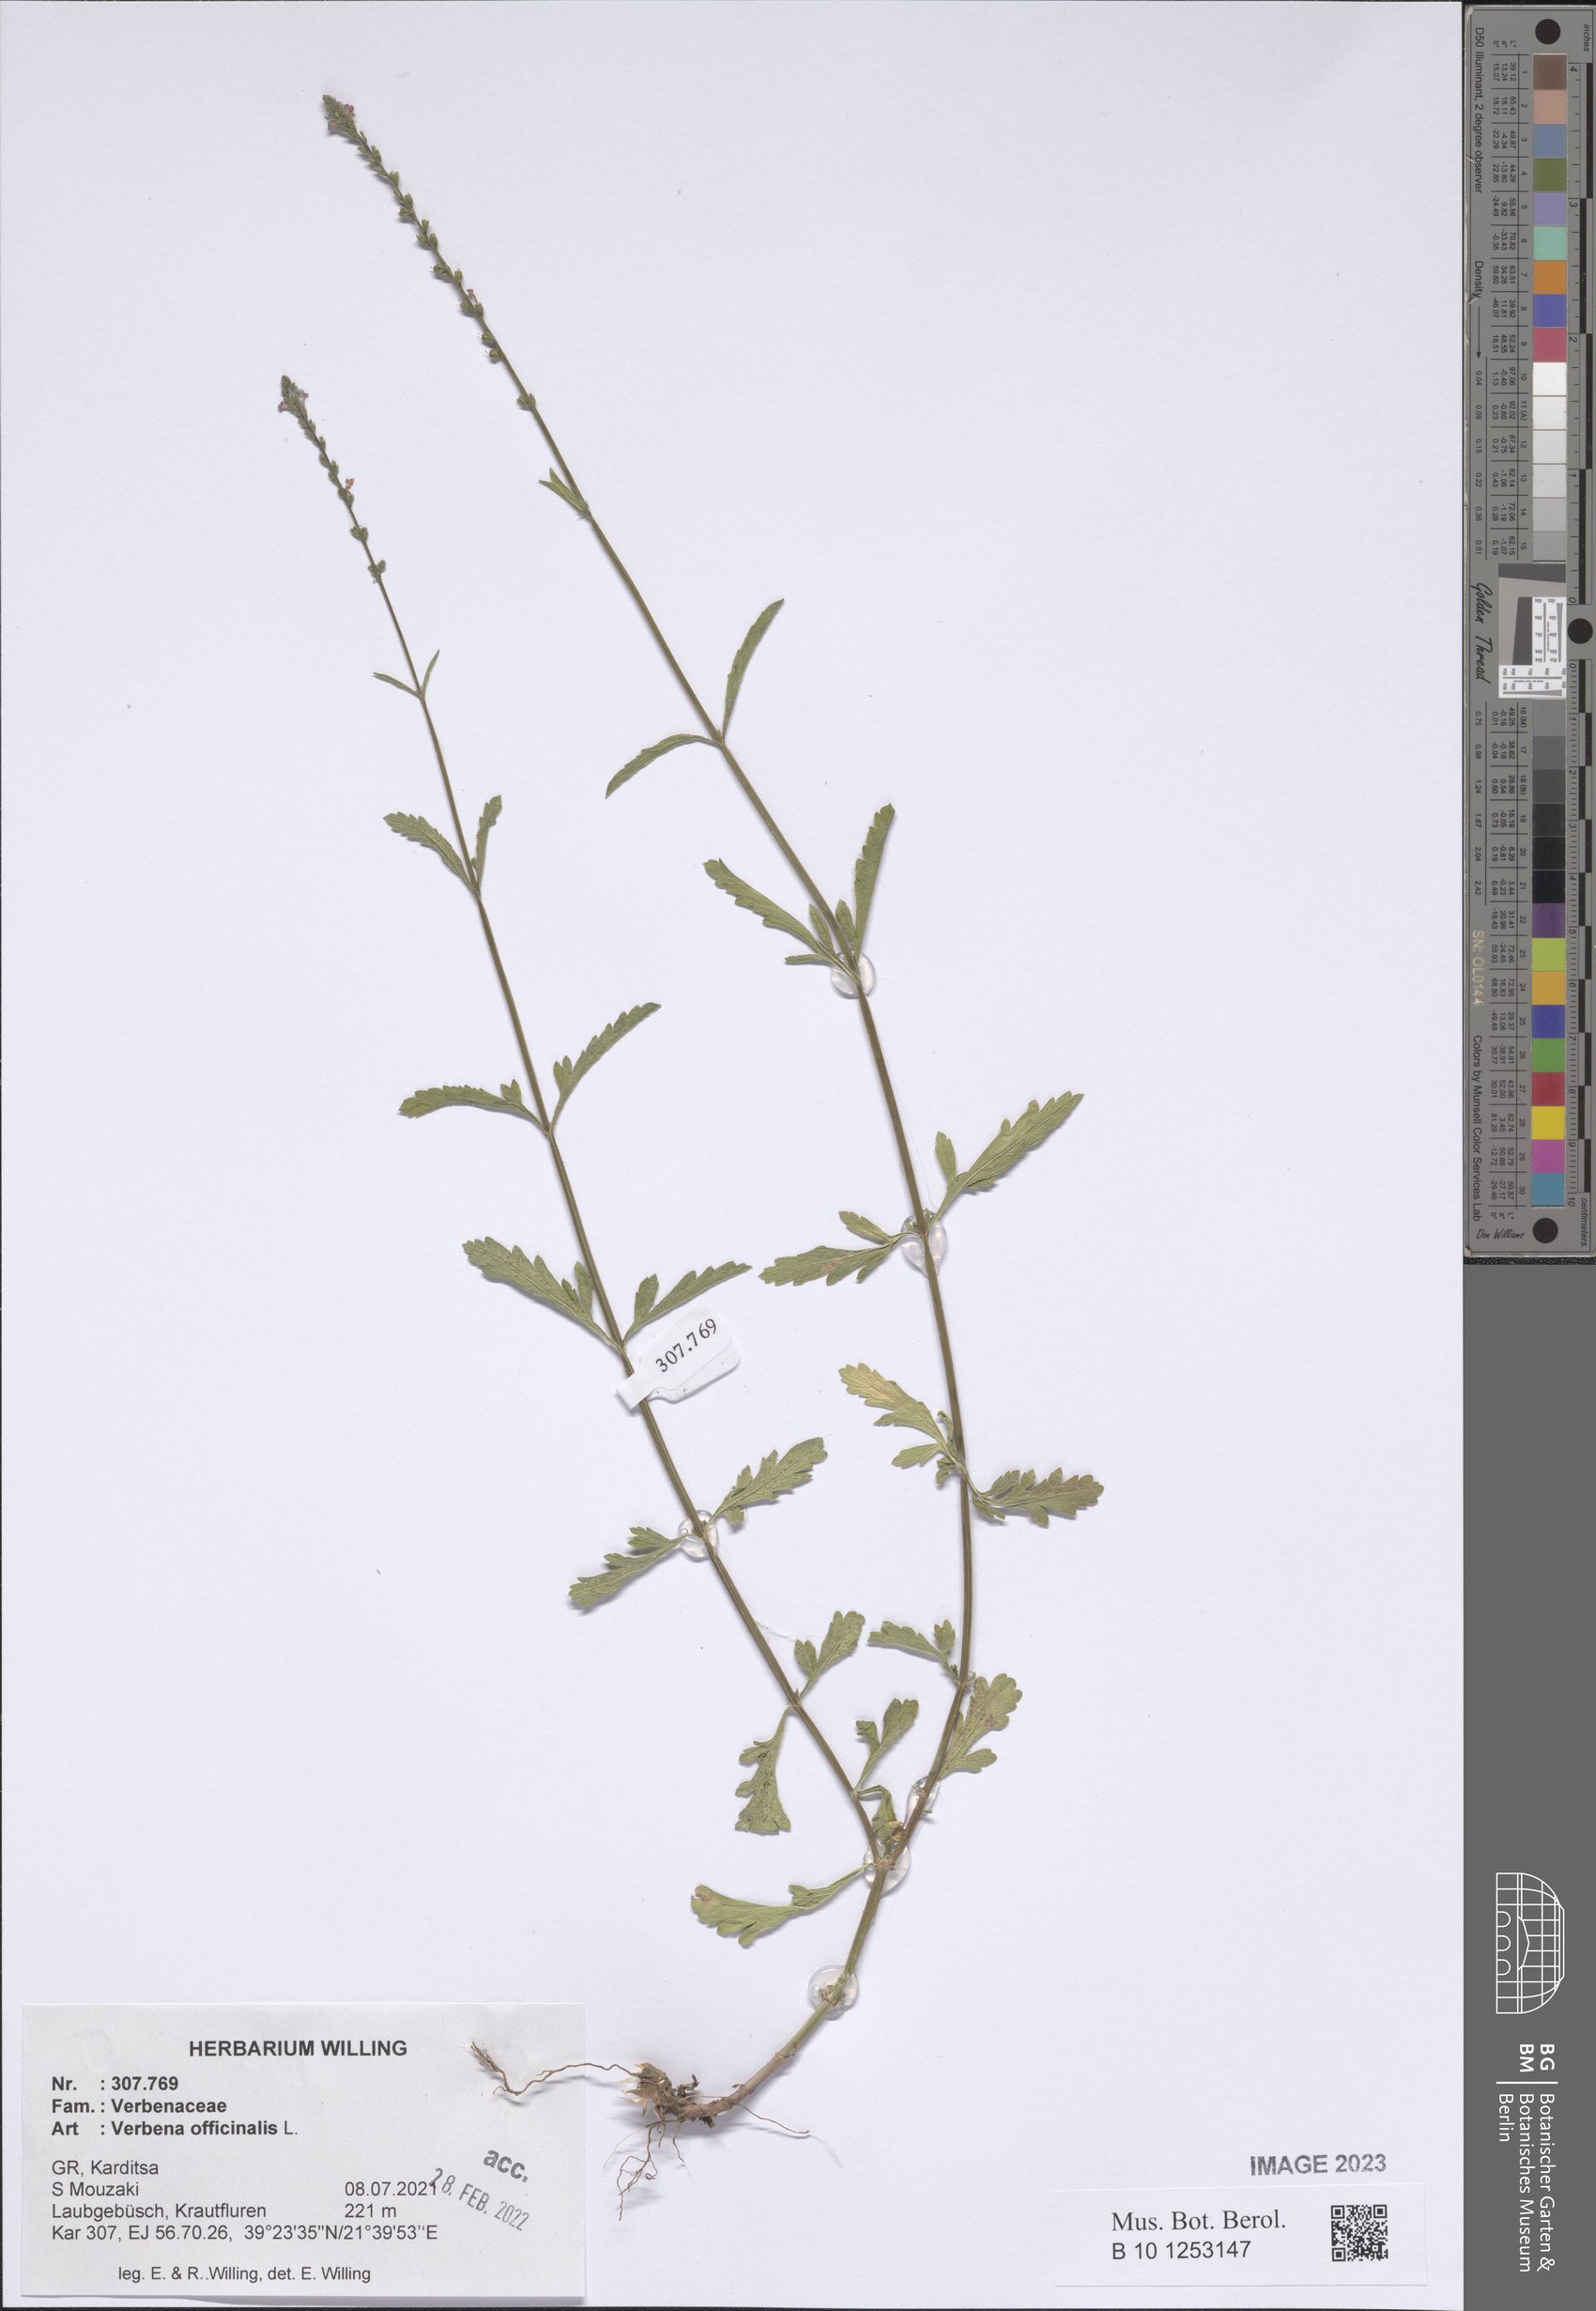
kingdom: Plantae
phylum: Tracheophyta
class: Magnoliopsida
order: Lamiales
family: Verbenaceae
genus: Verbena
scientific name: Verbena officinalis
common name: Vervain
